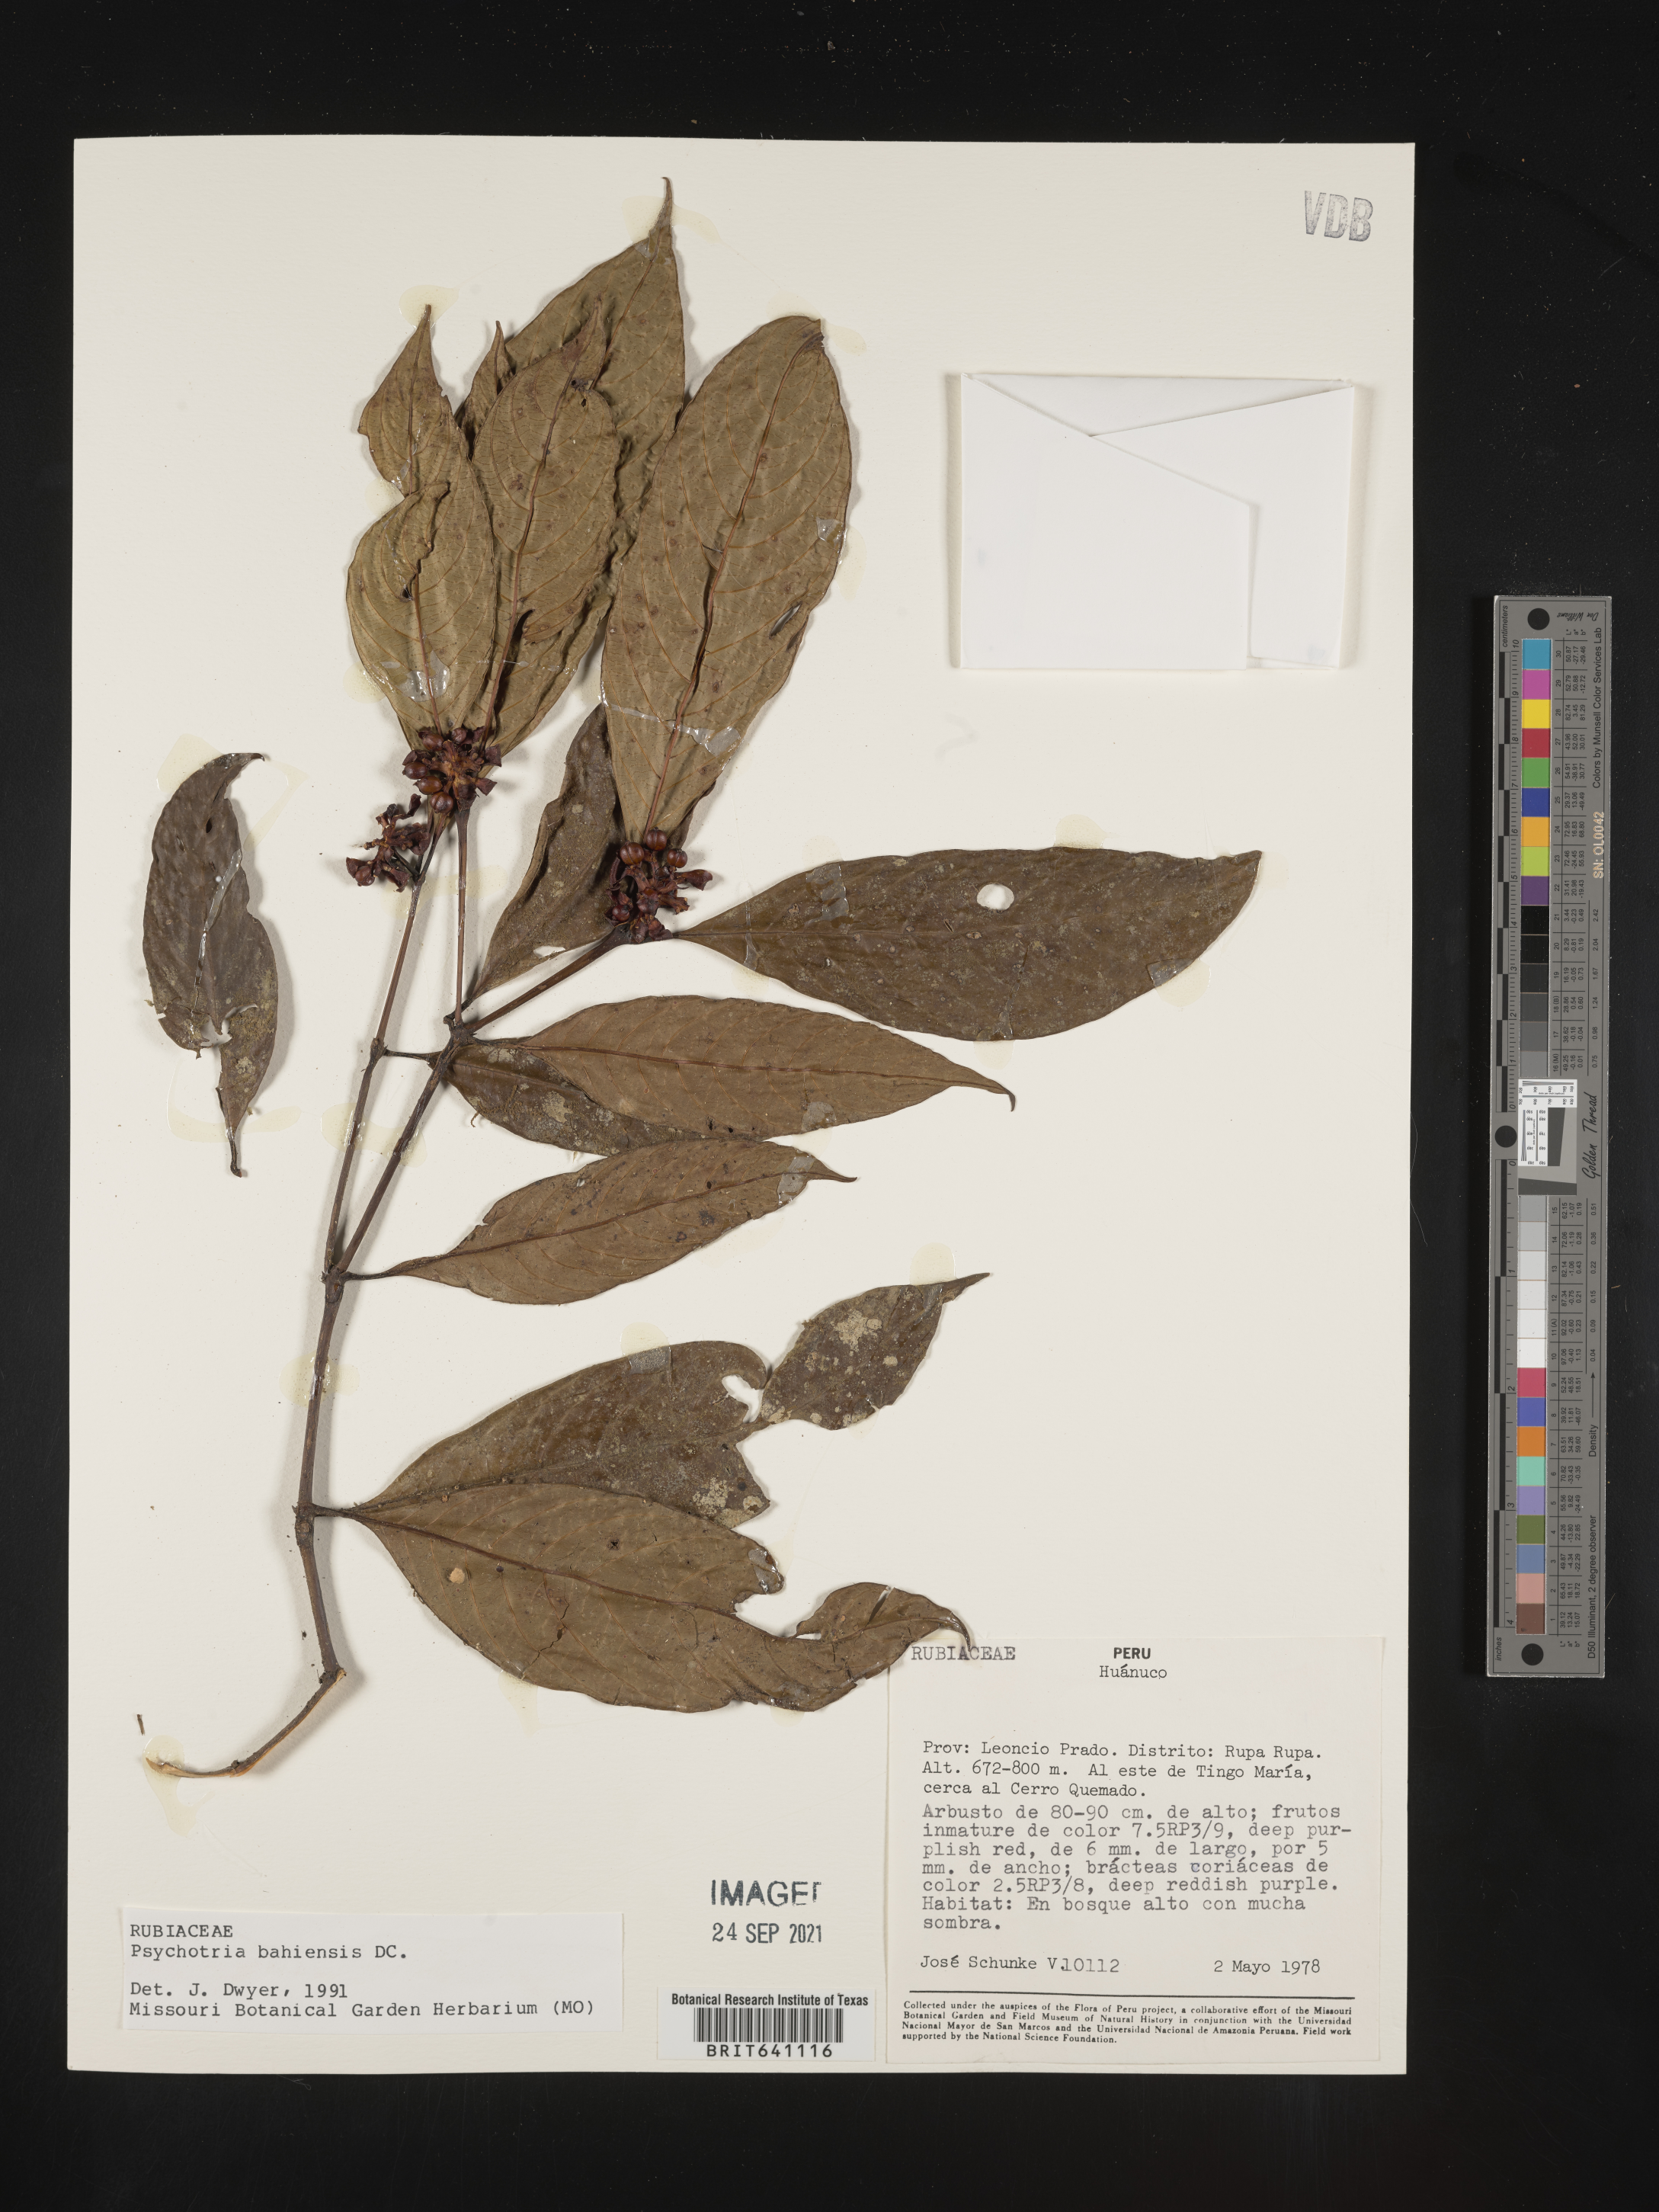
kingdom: Plantae
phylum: Tracheophyta
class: Magnoliopsida
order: Gentianales
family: Rubiaceae
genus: Psychotria
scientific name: Psychotria
